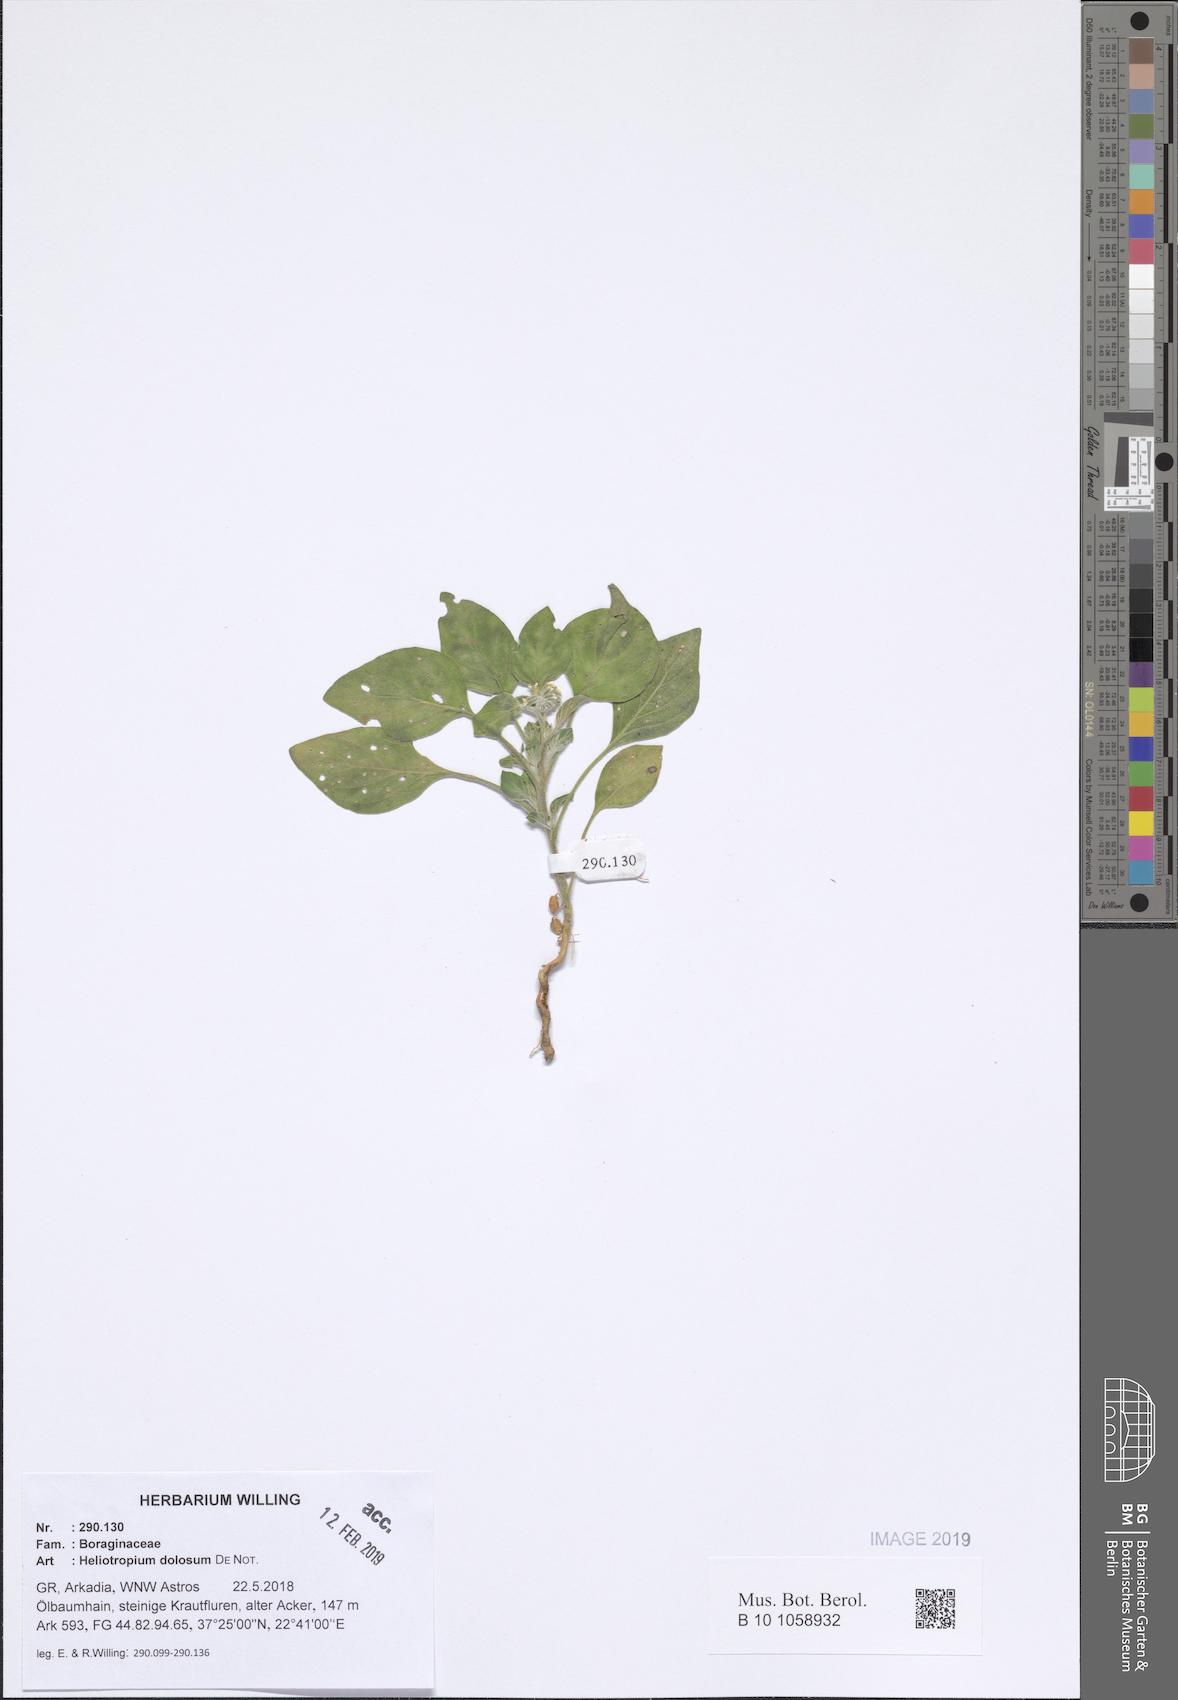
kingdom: Plantae
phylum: Tracheophyta
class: Magnoliopsida
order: Boraginales
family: Heliotropiaceae
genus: Heliotropium
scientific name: Heliotropium dolosum
